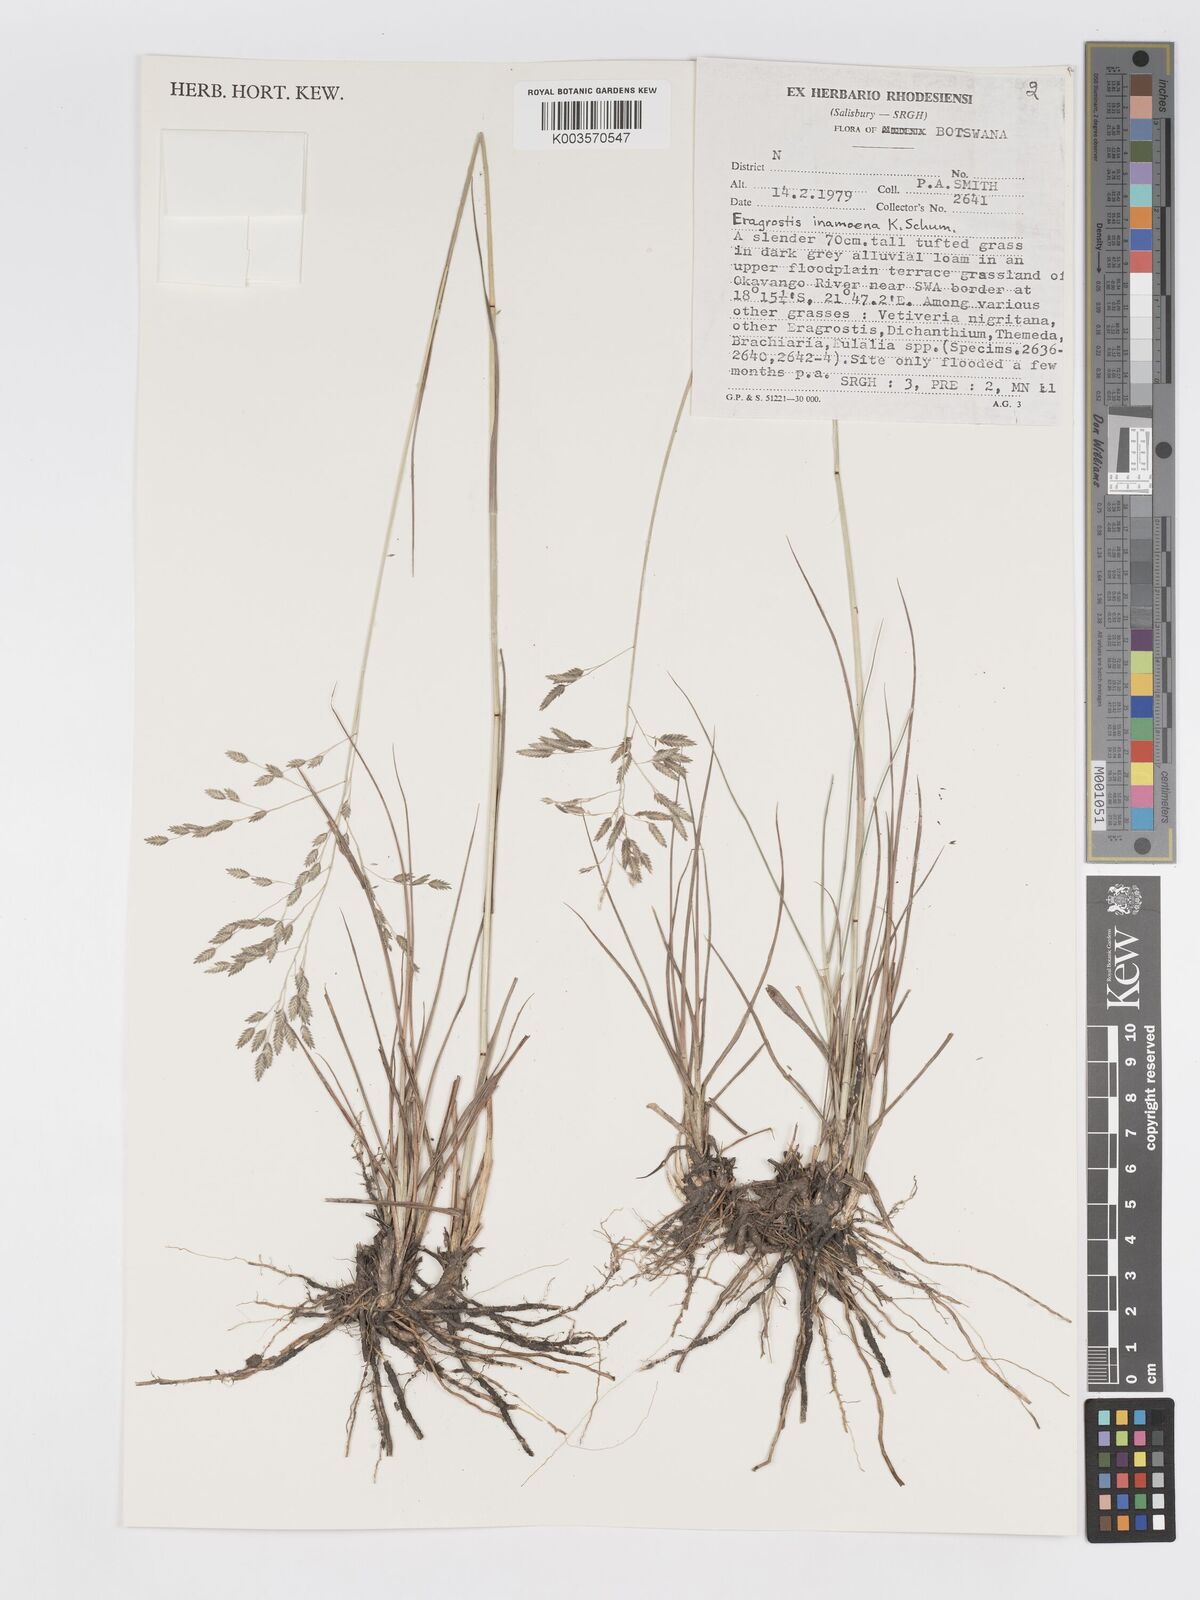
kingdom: Plantae
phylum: Tracheophyta
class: Liliopsida
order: Poales
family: Poaceae
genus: Eragrostis
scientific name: Eragrostis inamoena
